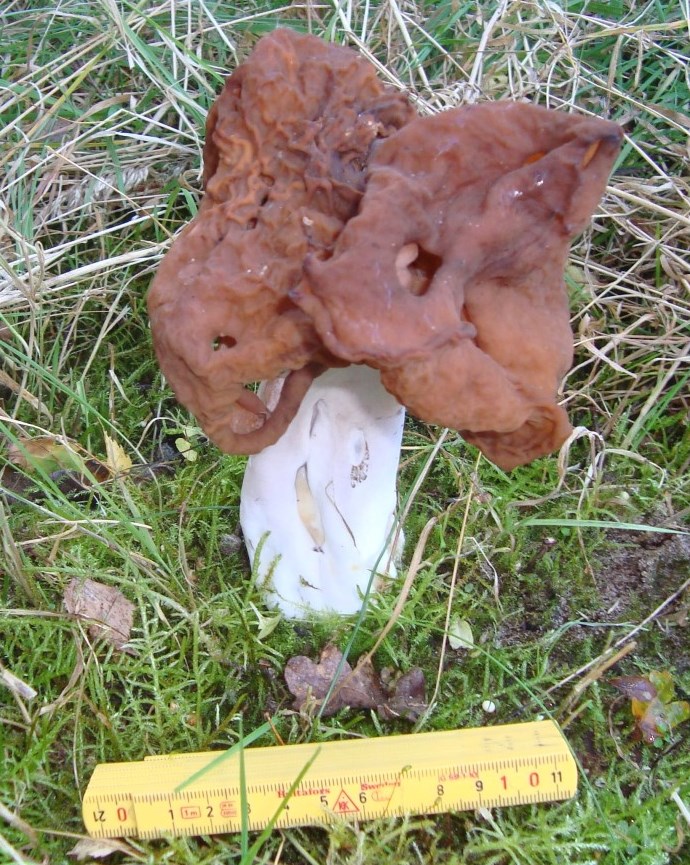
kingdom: Fungi
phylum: Ascomycota
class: Pezizomycetes
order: Pezizales
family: Discinaceae
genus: Gyromitra
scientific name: Gyromitra infula
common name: bispehue-stenmorkel
